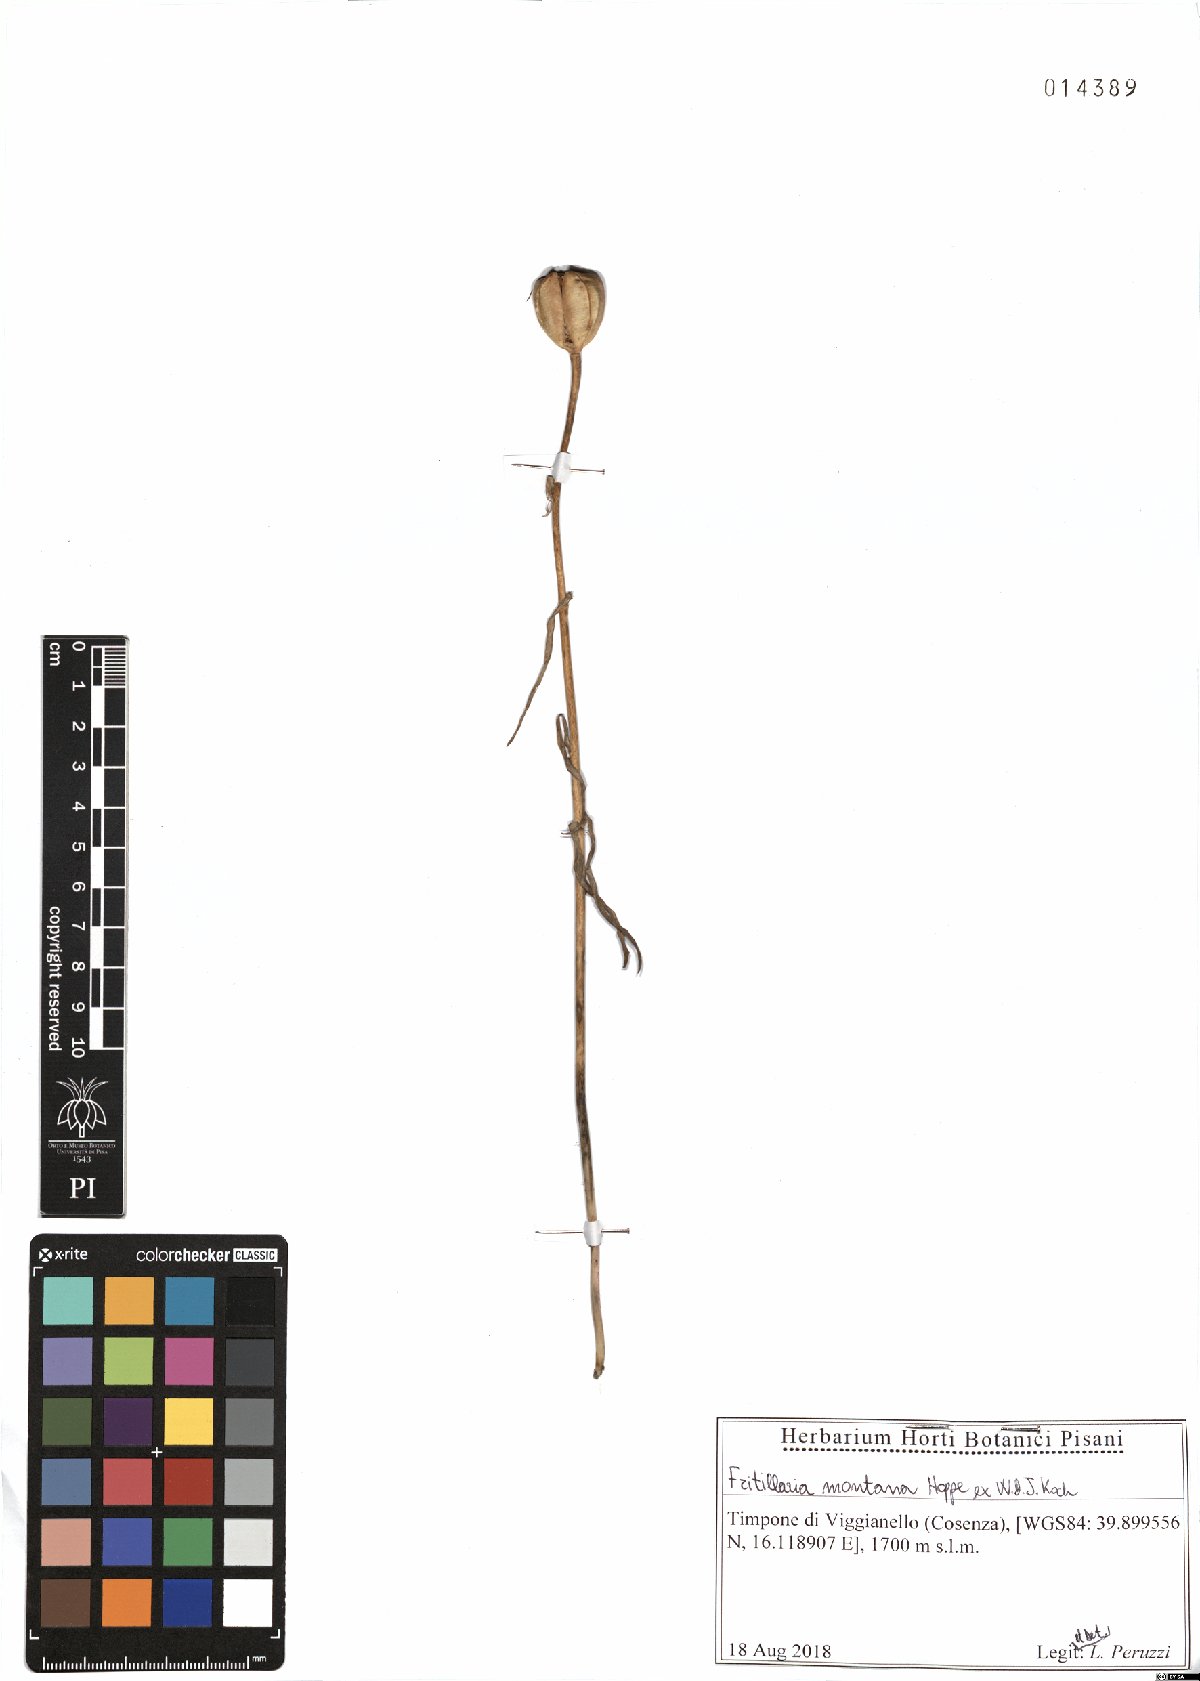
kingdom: Plantae
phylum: Tracheophyta
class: Liliopsida
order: Liliales
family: Liliaceae
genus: Fritillaria
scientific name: Fritillaria montana
